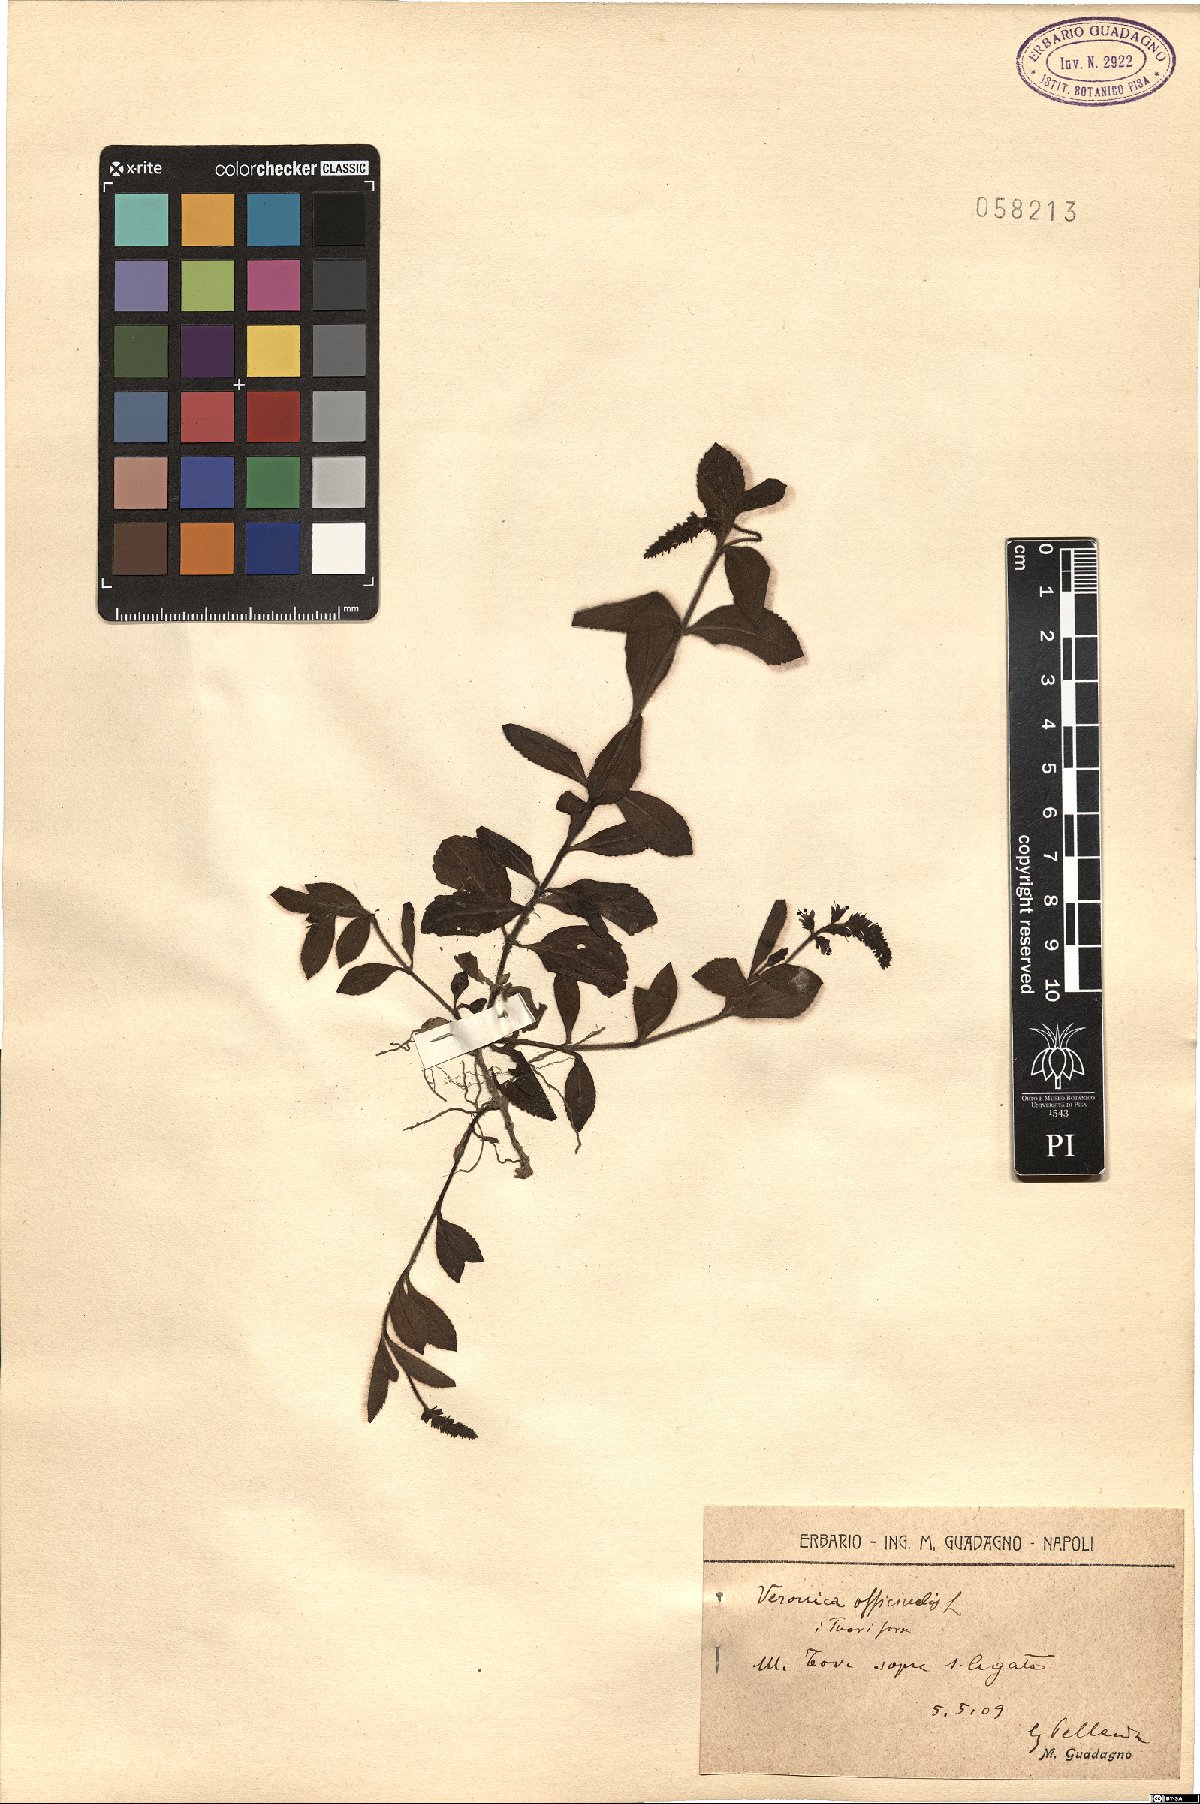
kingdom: Plantae
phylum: Tracheophyta
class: Magnoliopsida
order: Lamiales
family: Plantaginaceae
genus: Veronica
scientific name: Veronica officinalis
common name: Common speedwell
